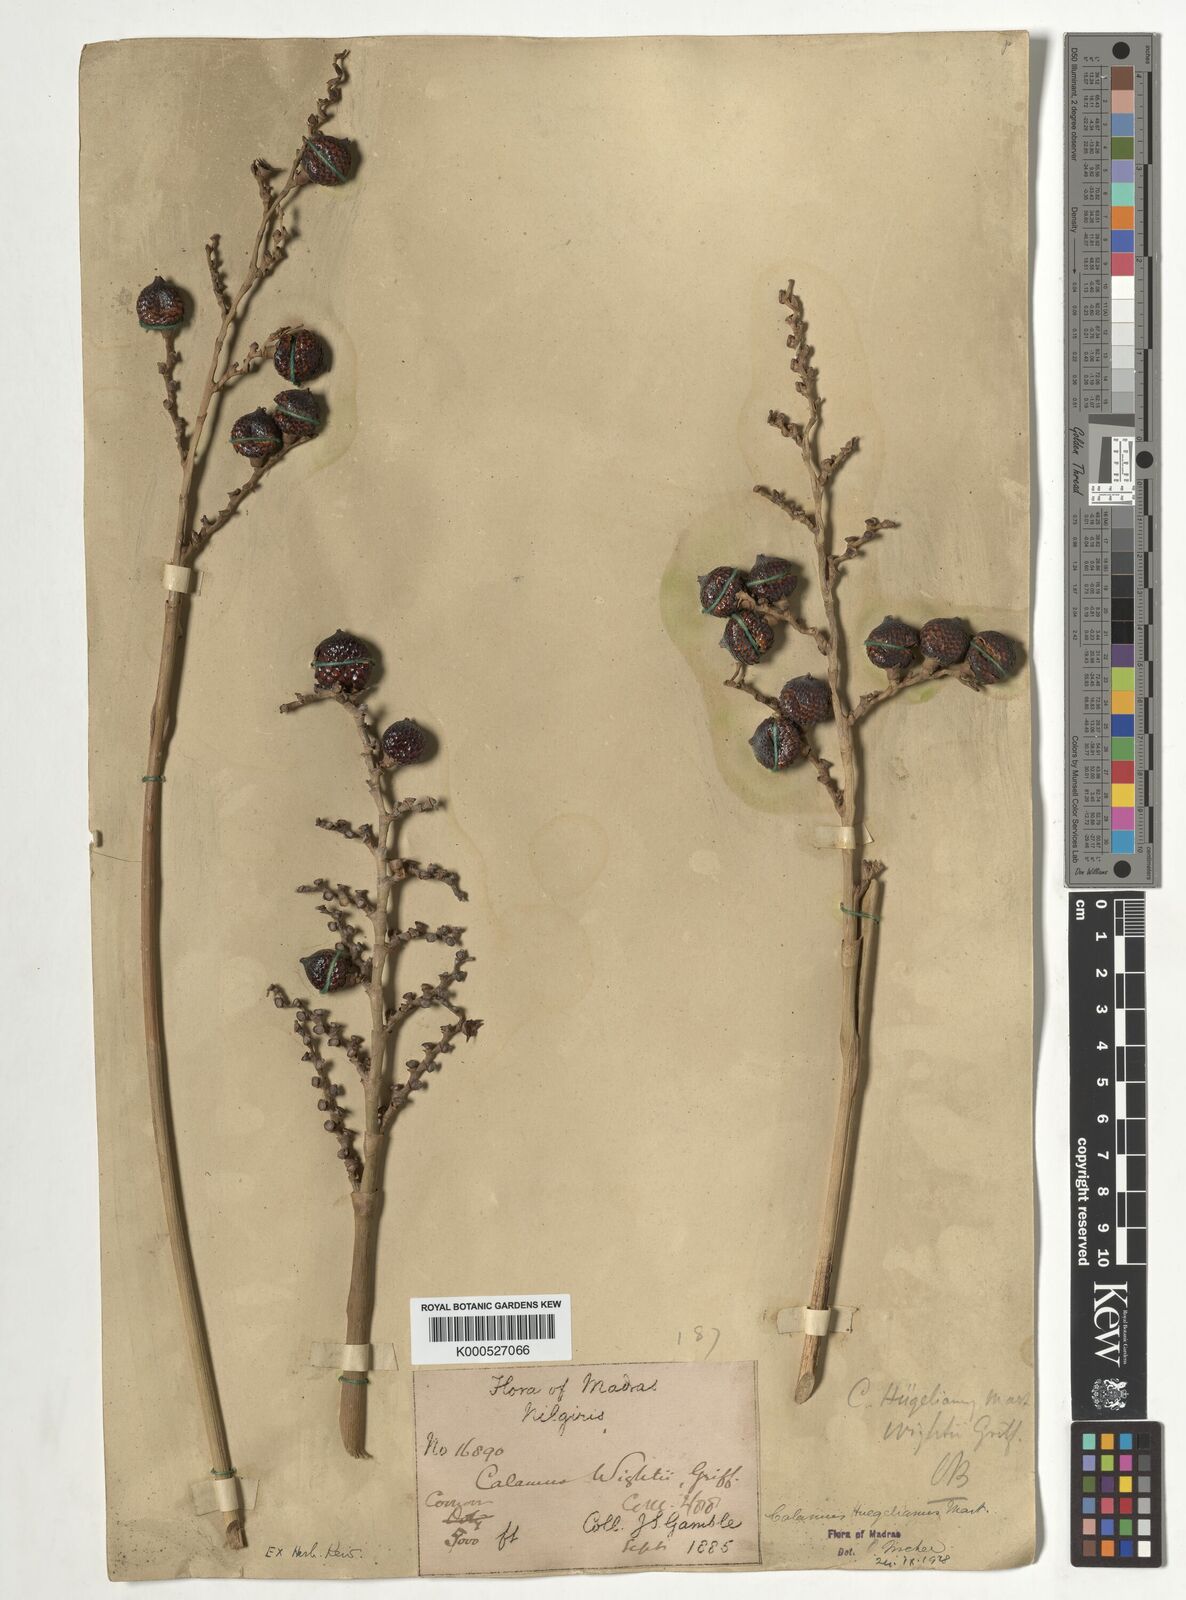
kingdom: Plantae
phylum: Tracheophyta
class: Liliopsida
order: Arecales
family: Arecaceae
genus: Calamus
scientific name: Calamus wightii
